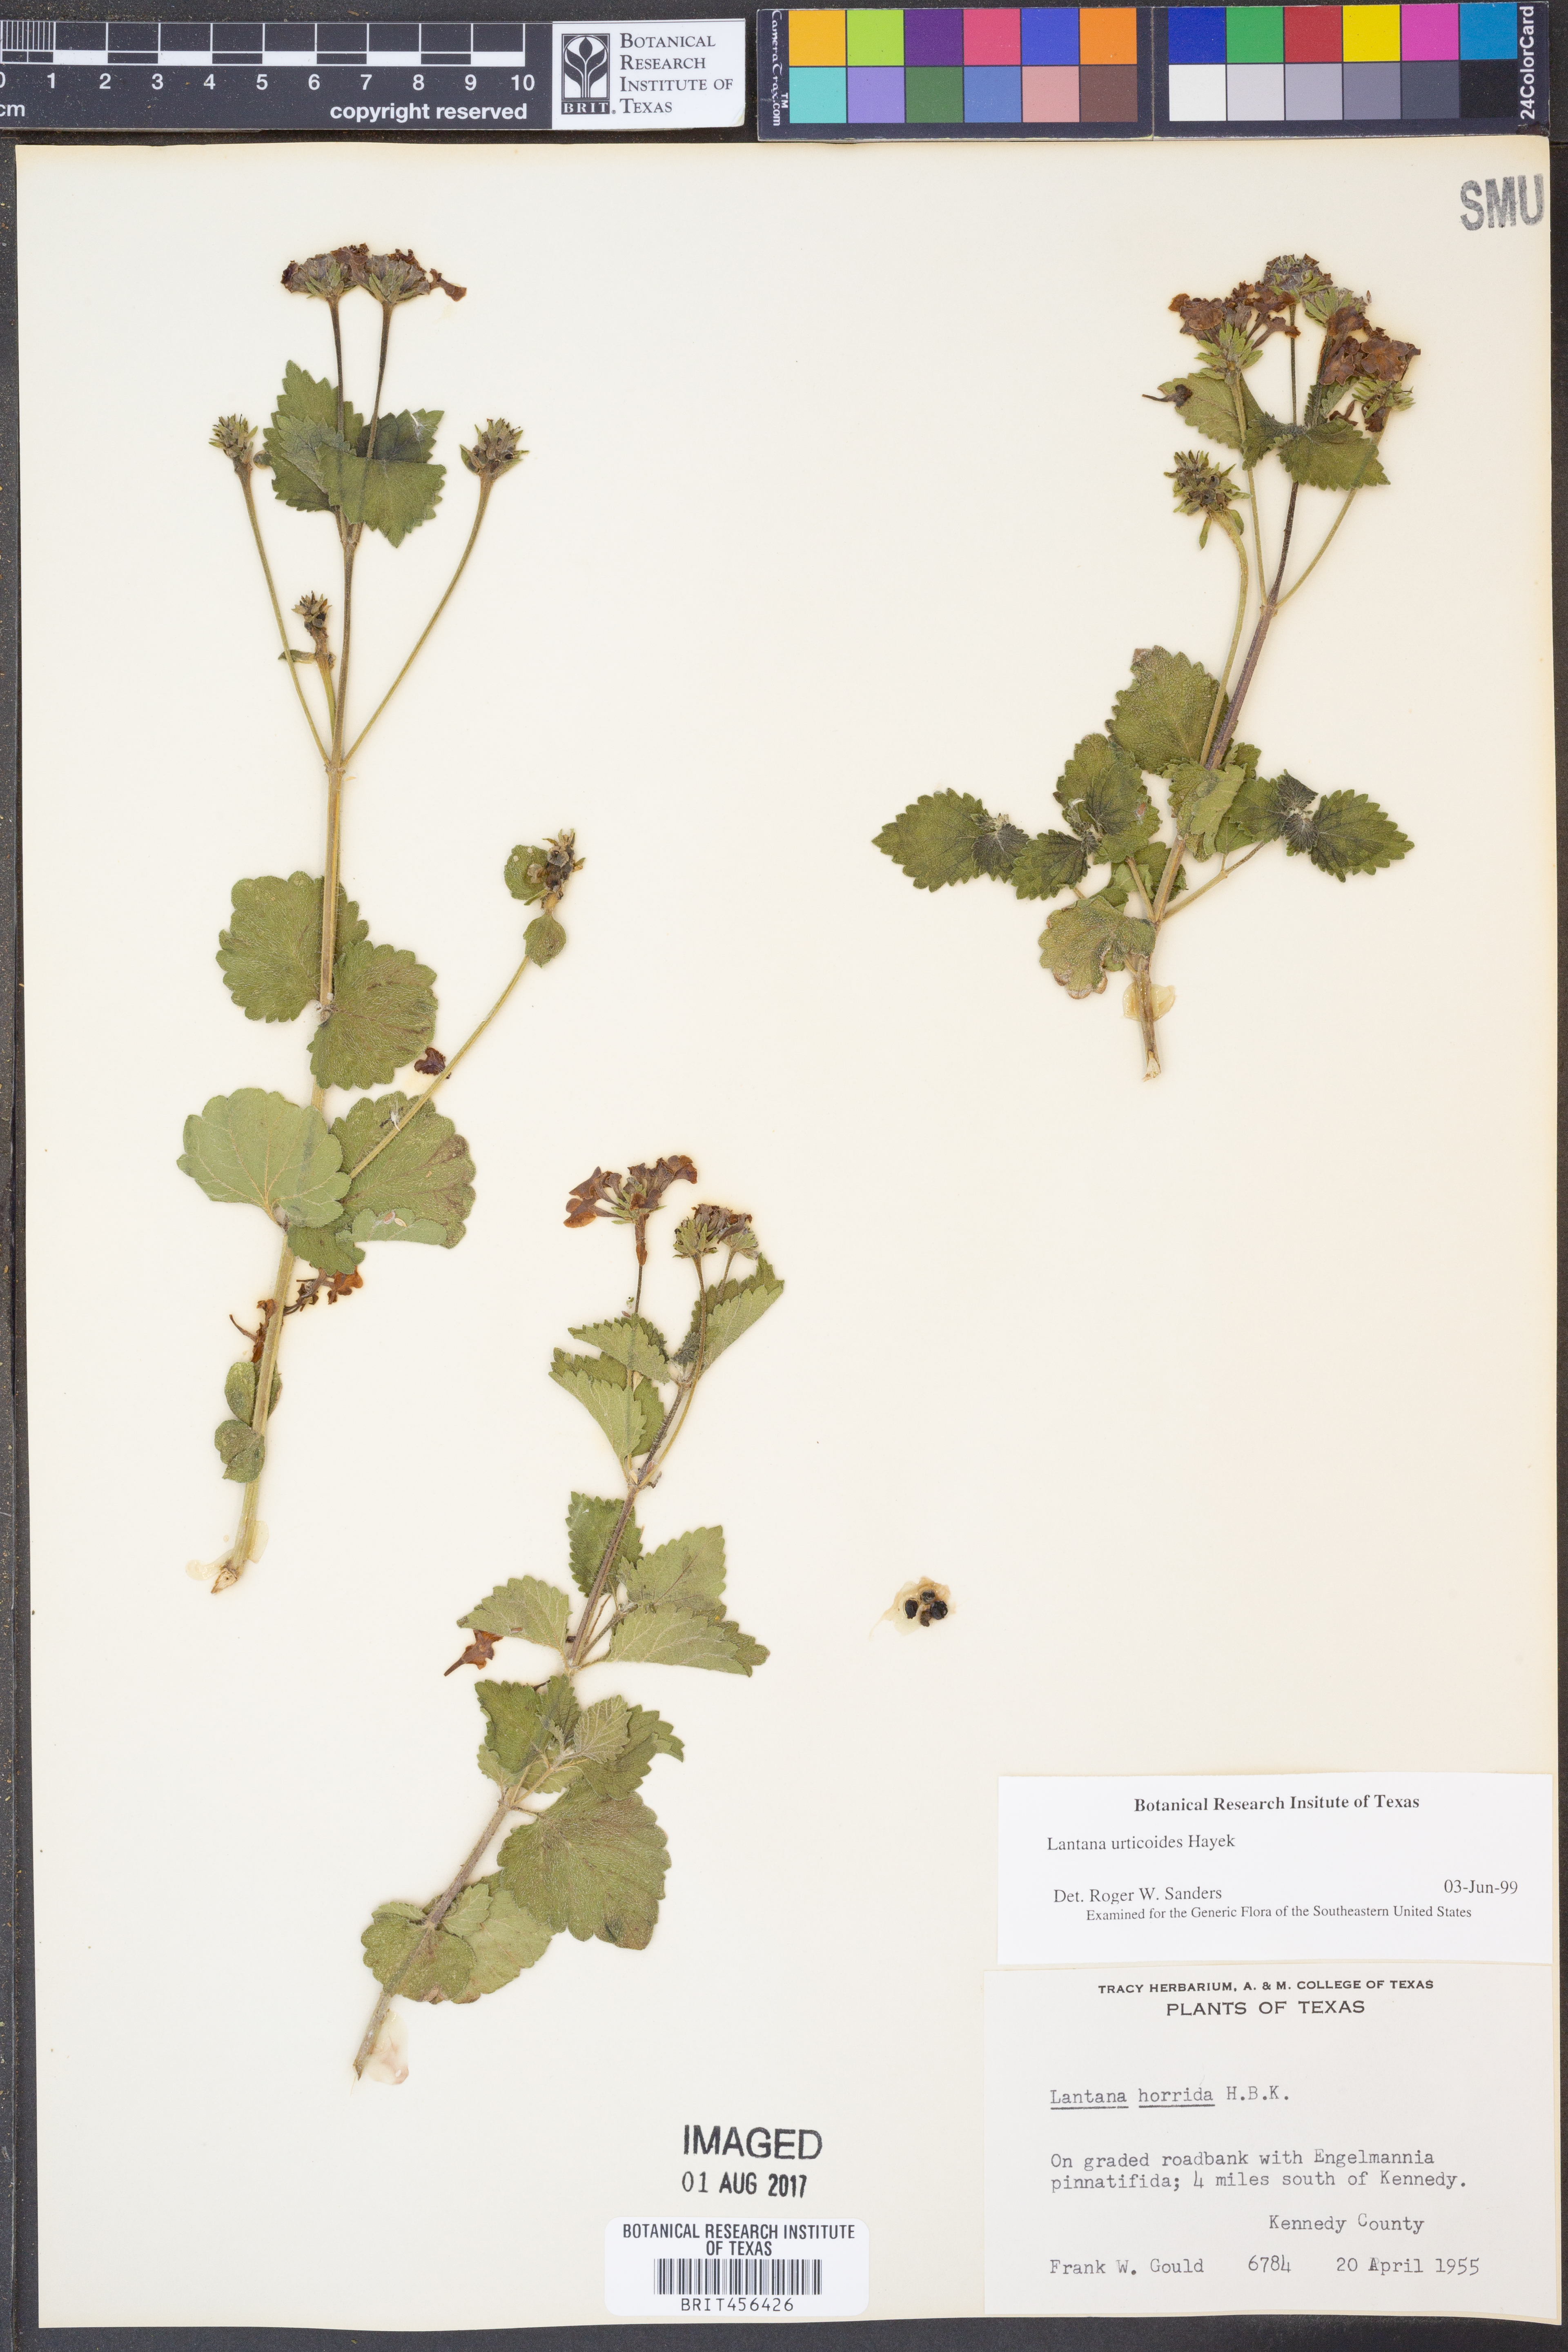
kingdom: Plantae
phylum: Tracheophyta
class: Magnoliopsida
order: Lamiales
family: Verbenaceae
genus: Lantana
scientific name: Lantana urticoides
